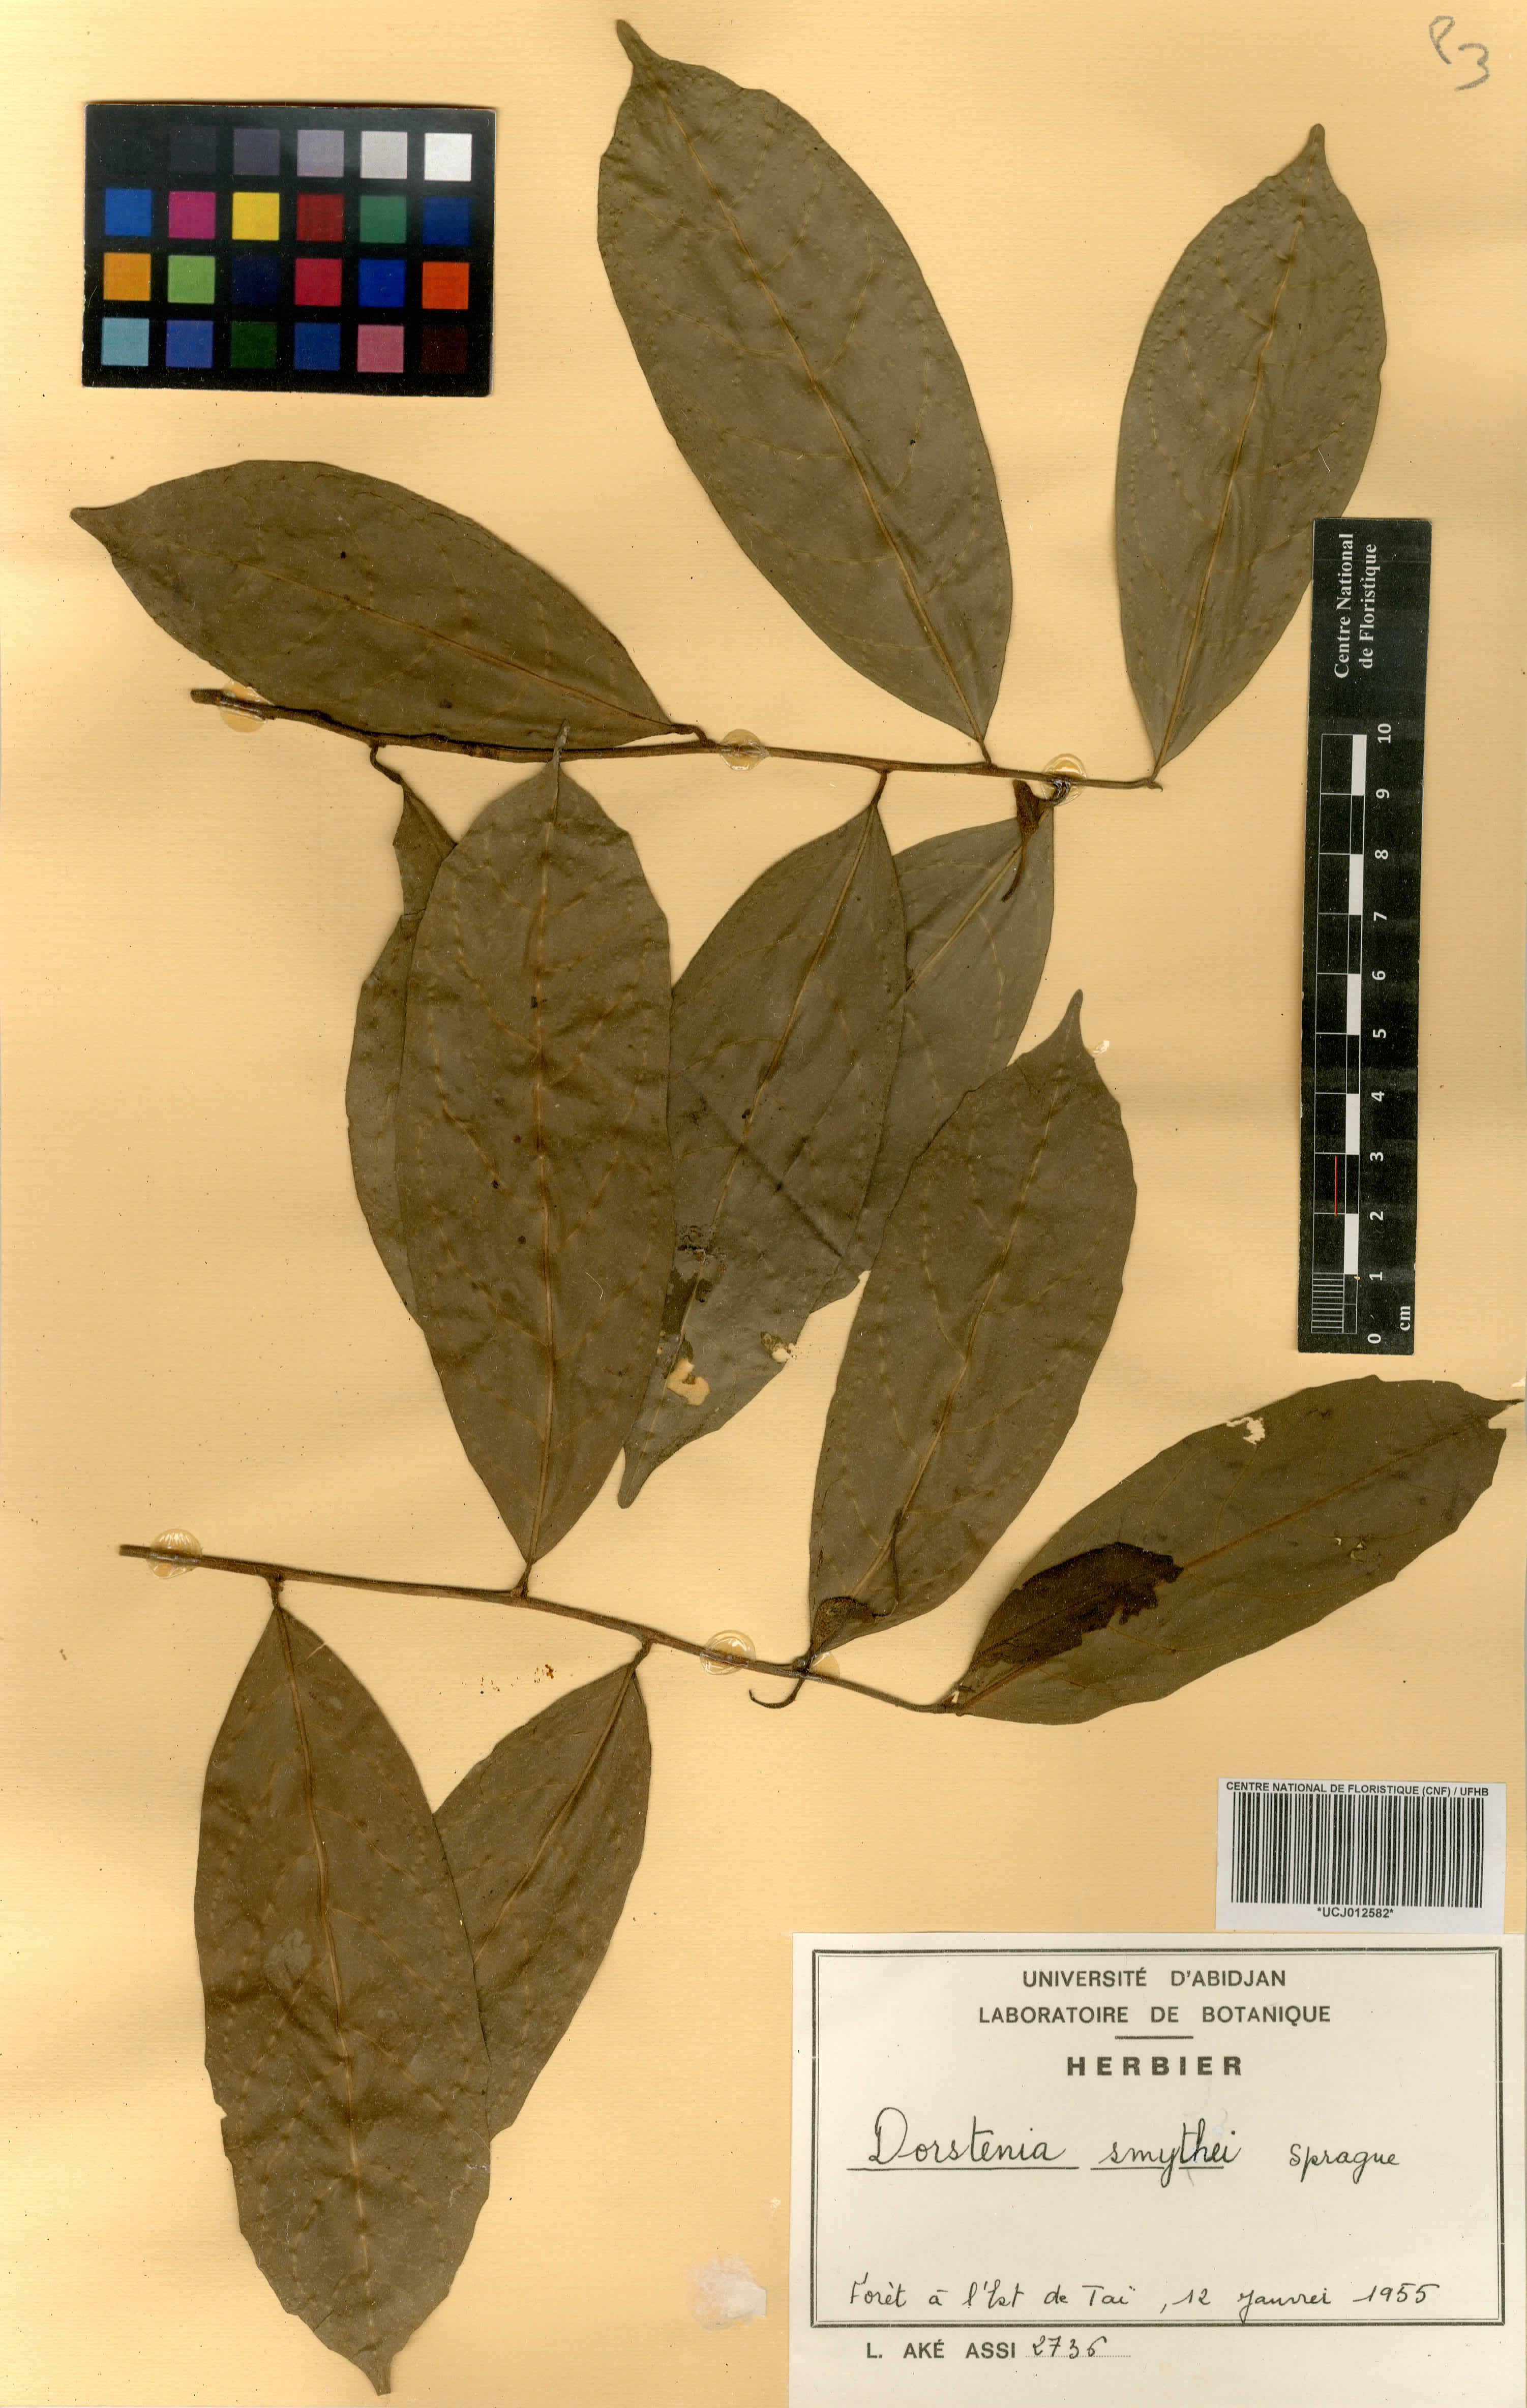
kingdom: Plantae
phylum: Tracheophyta
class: Magnoliopsida
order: Rosales
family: Moraceae
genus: Hijmania
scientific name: Hijmania turbinata
